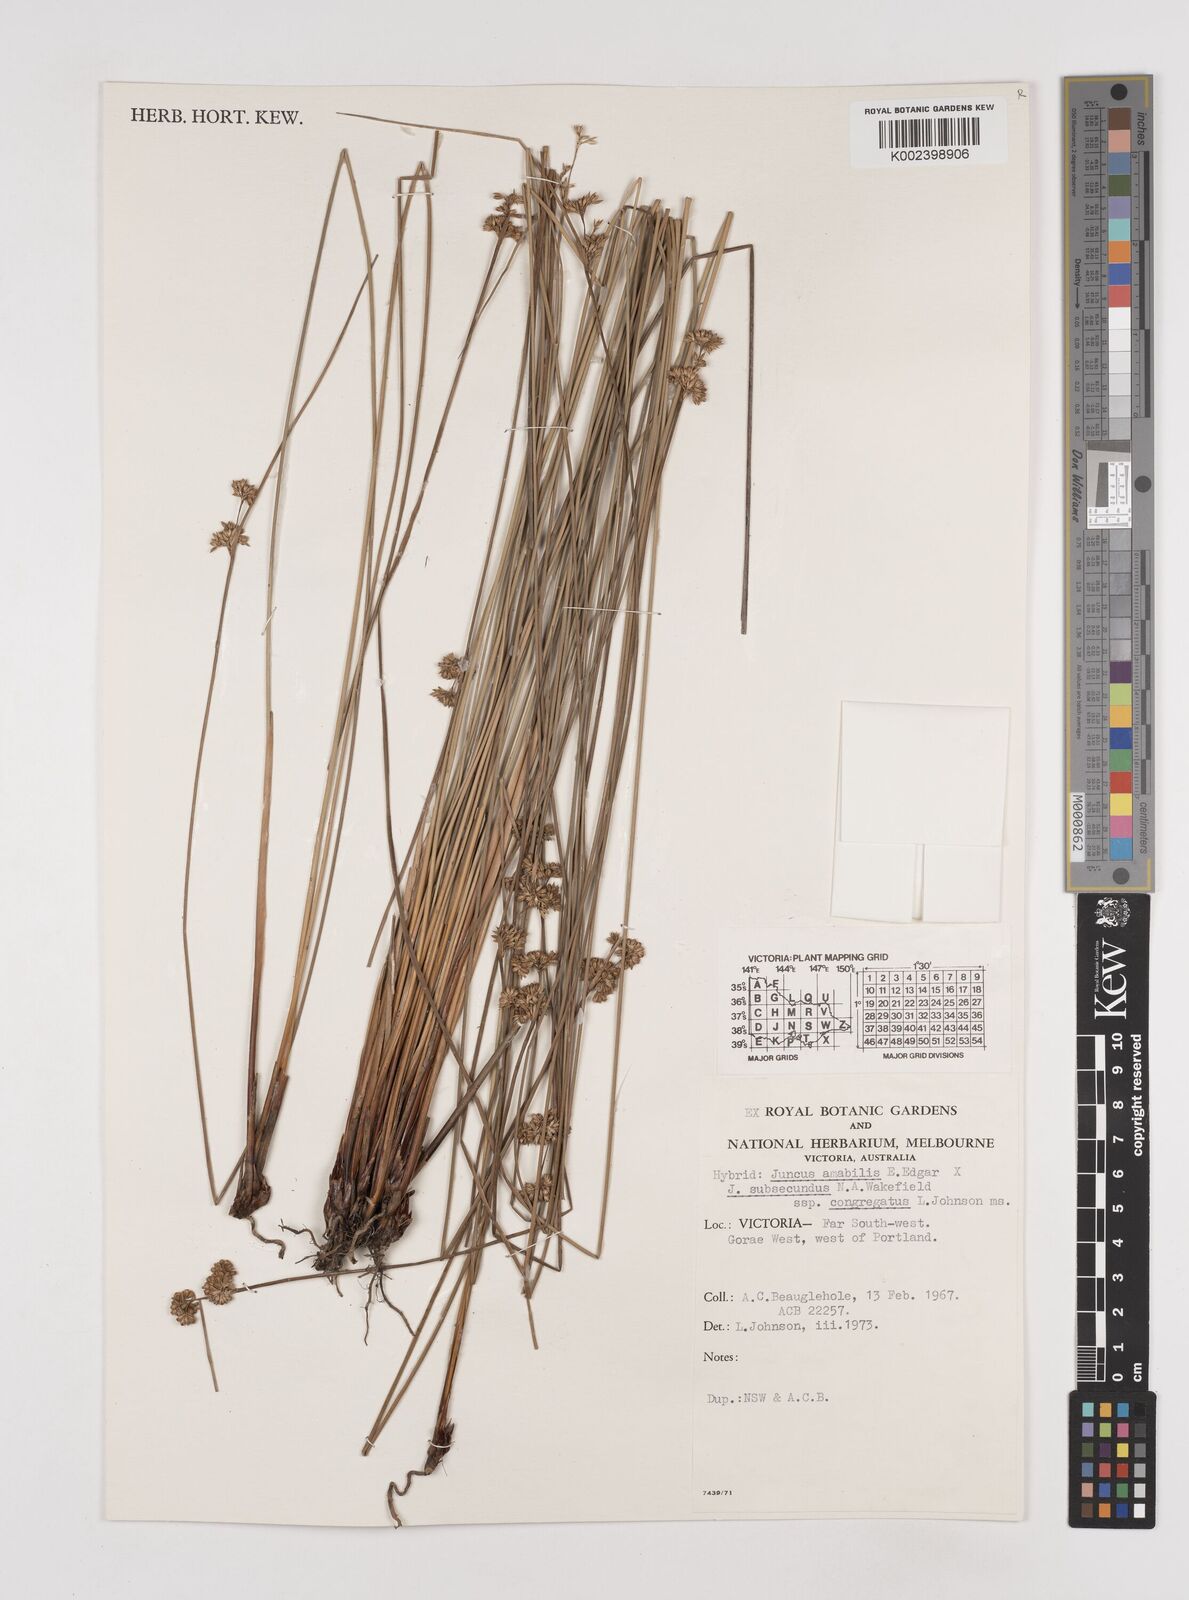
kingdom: Plantae
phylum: Tracheophyta
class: Liliopsida
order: Poales
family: Juncaceae
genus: Juncus
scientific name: Juncus amabilis
